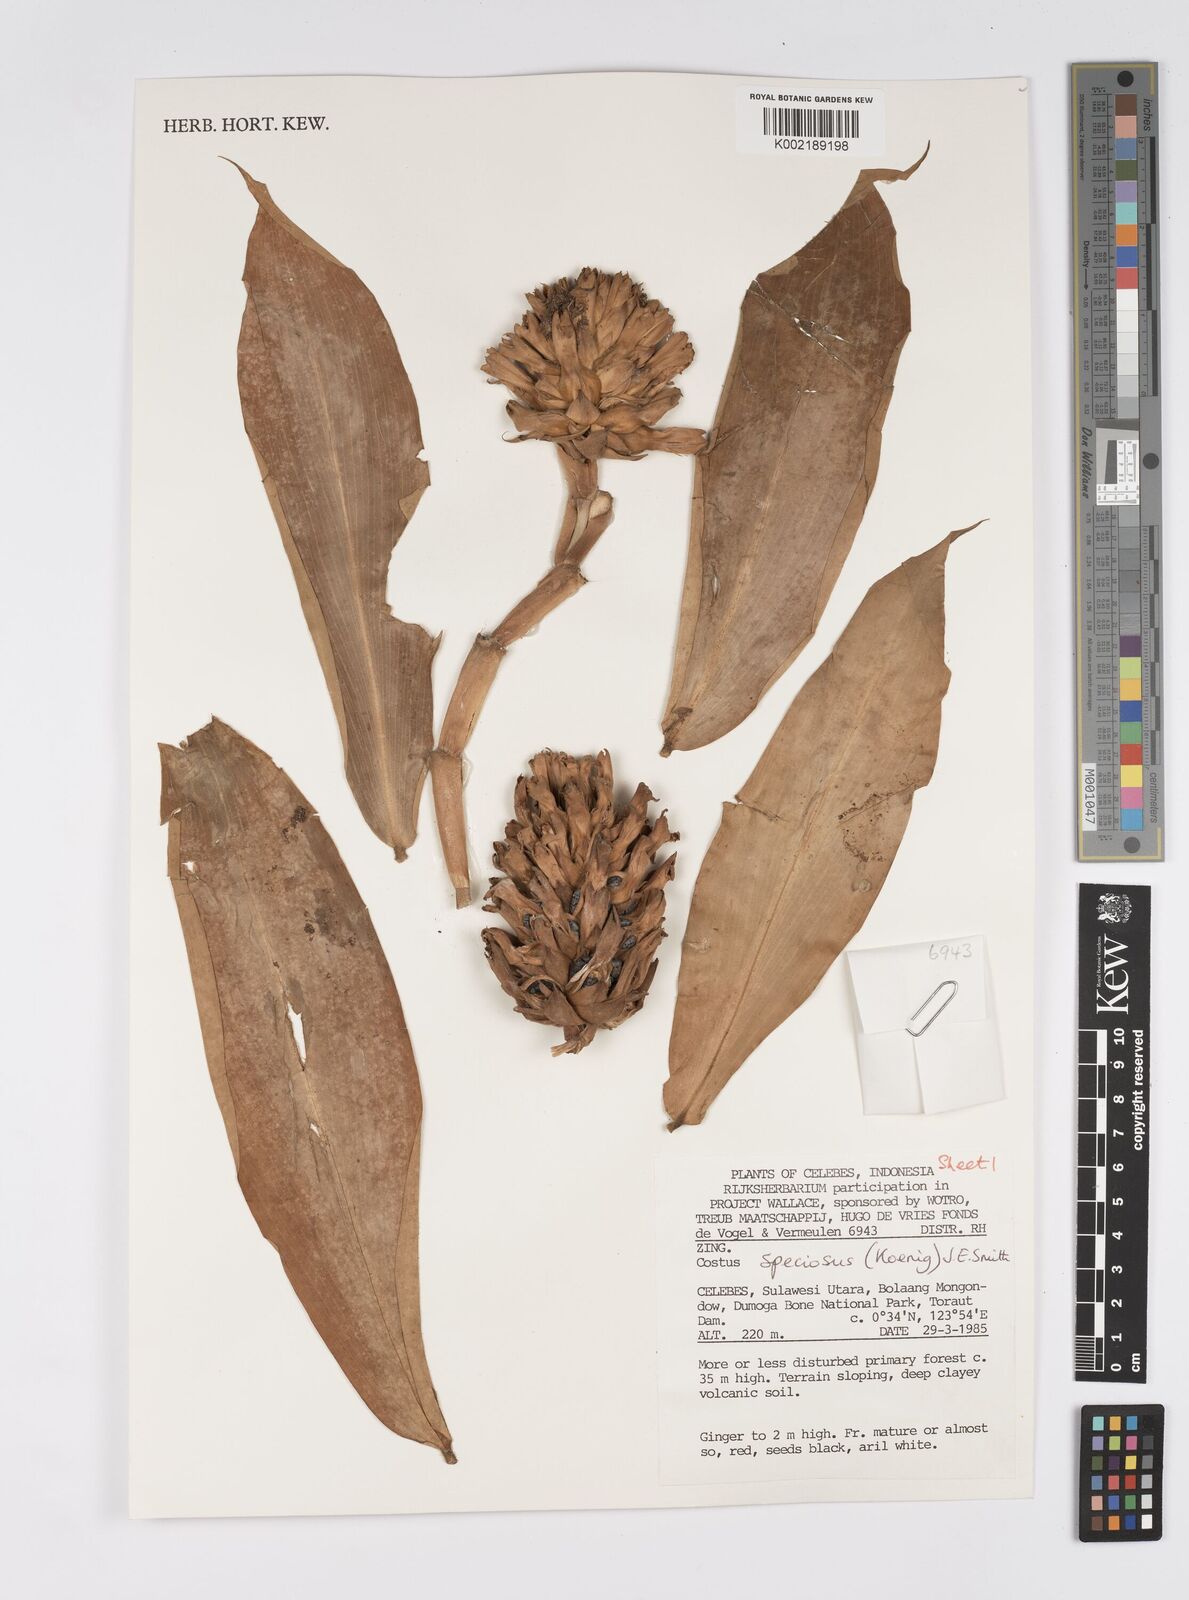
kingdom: Plantae
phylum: Tracheophyta
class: Liliopsida
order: Zingiberales
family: Costaceae
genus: Hellenia
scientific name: Hellenia speciosa
